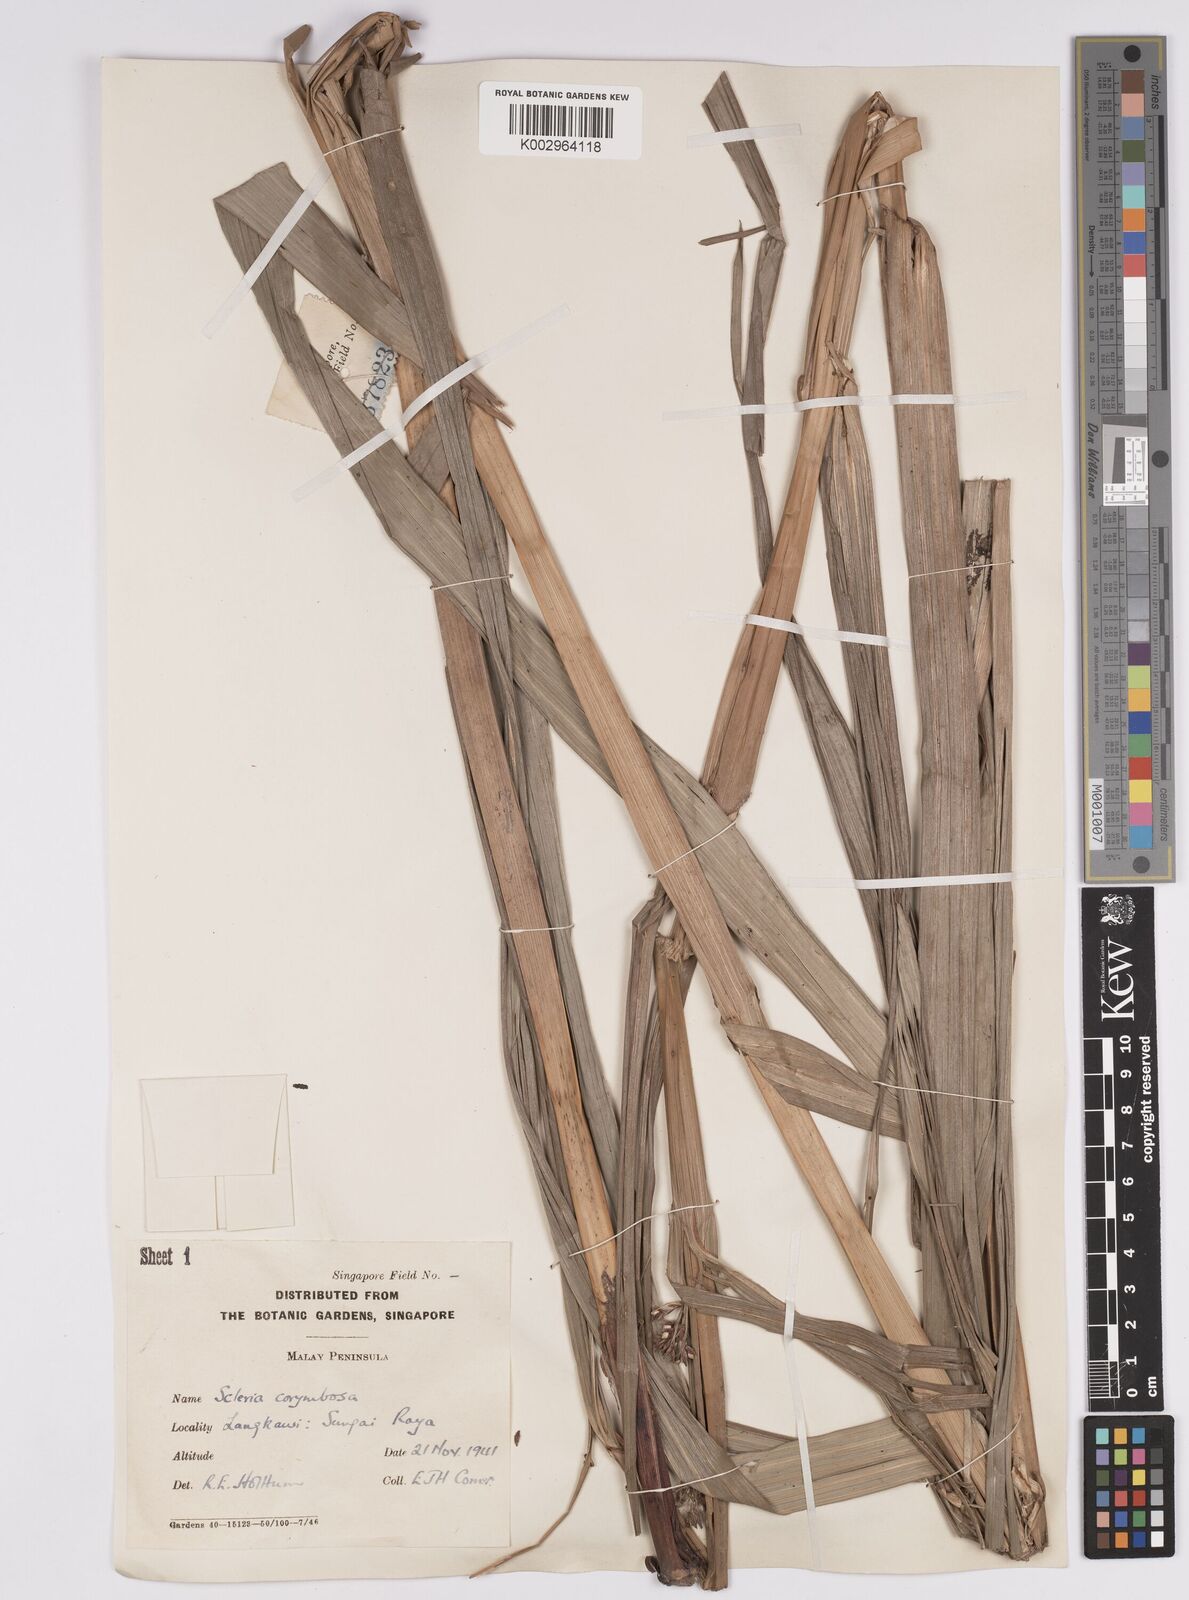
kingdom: Plantae
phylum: Tracheophyta
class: Liliopsida
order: Poales
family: Cyperaceae
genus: Scleria
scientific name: Scleria corymbosa
